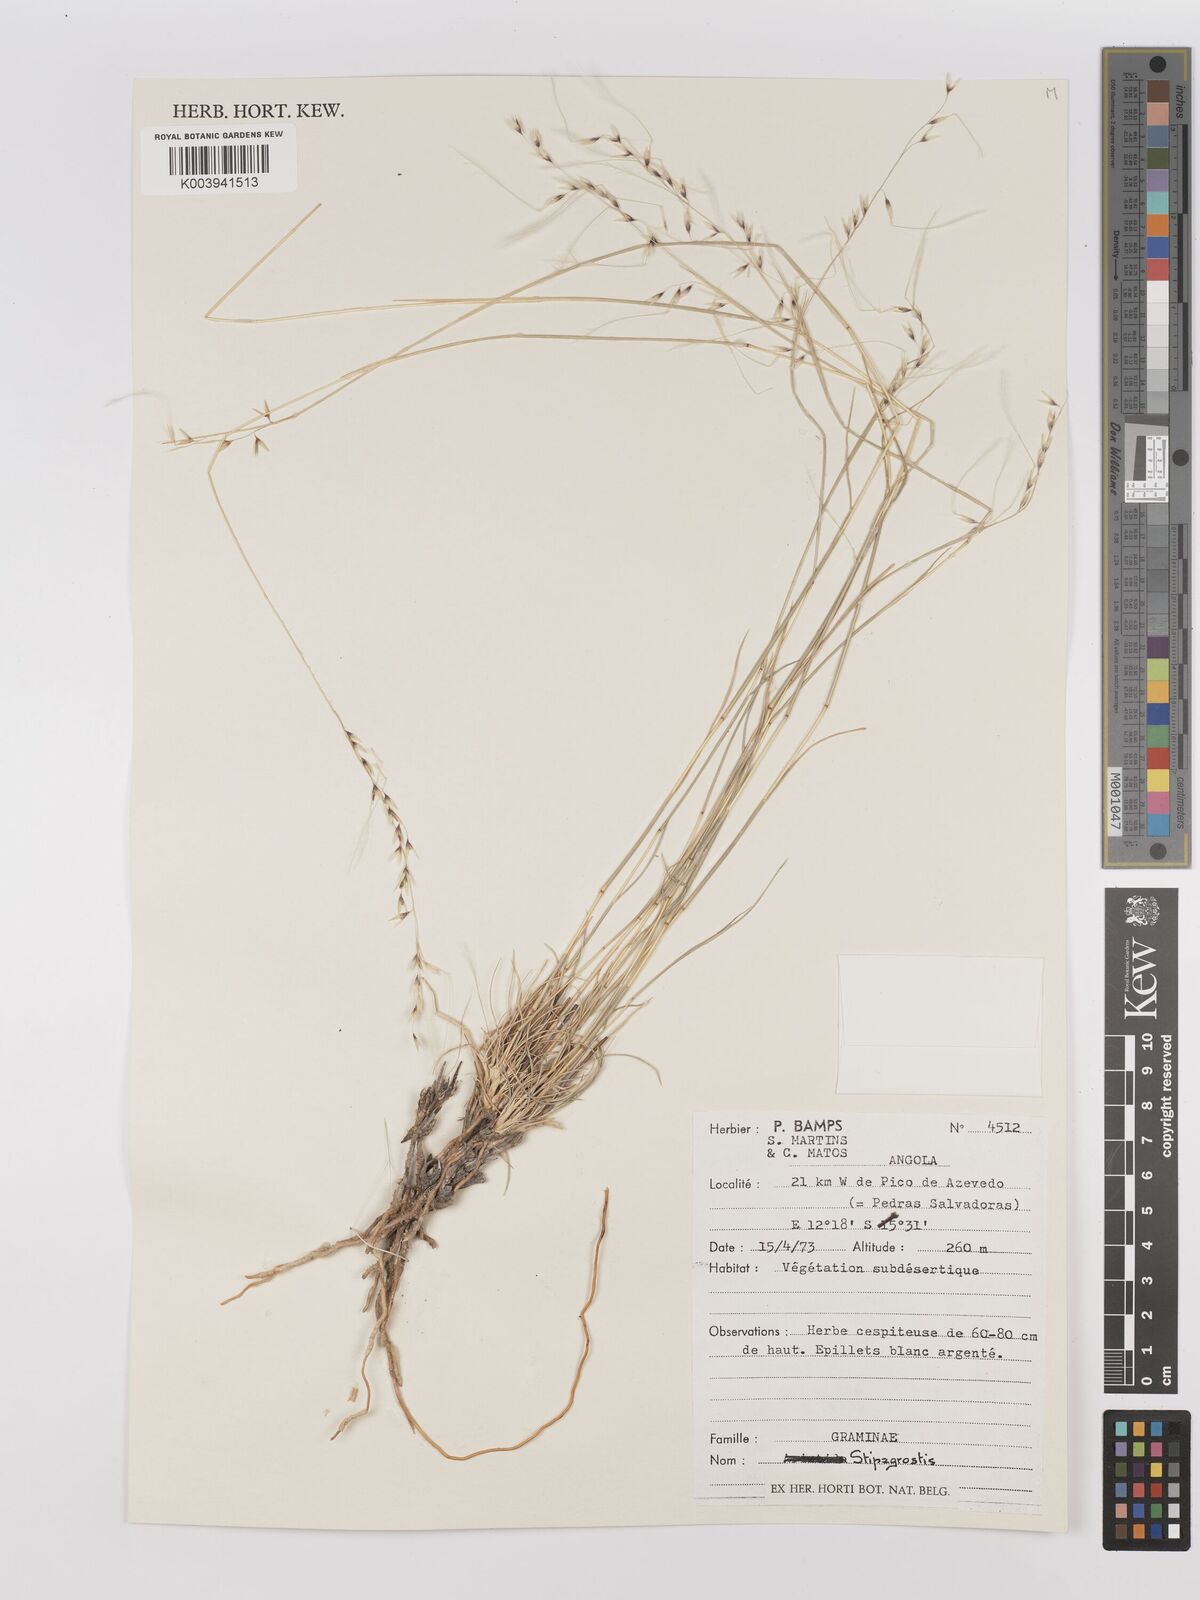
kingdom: Plantae
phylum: Tracheophyta
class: Liliopsida
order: Poales
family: Poaceae
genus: Stipagrostis
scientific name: Stipagrostis
